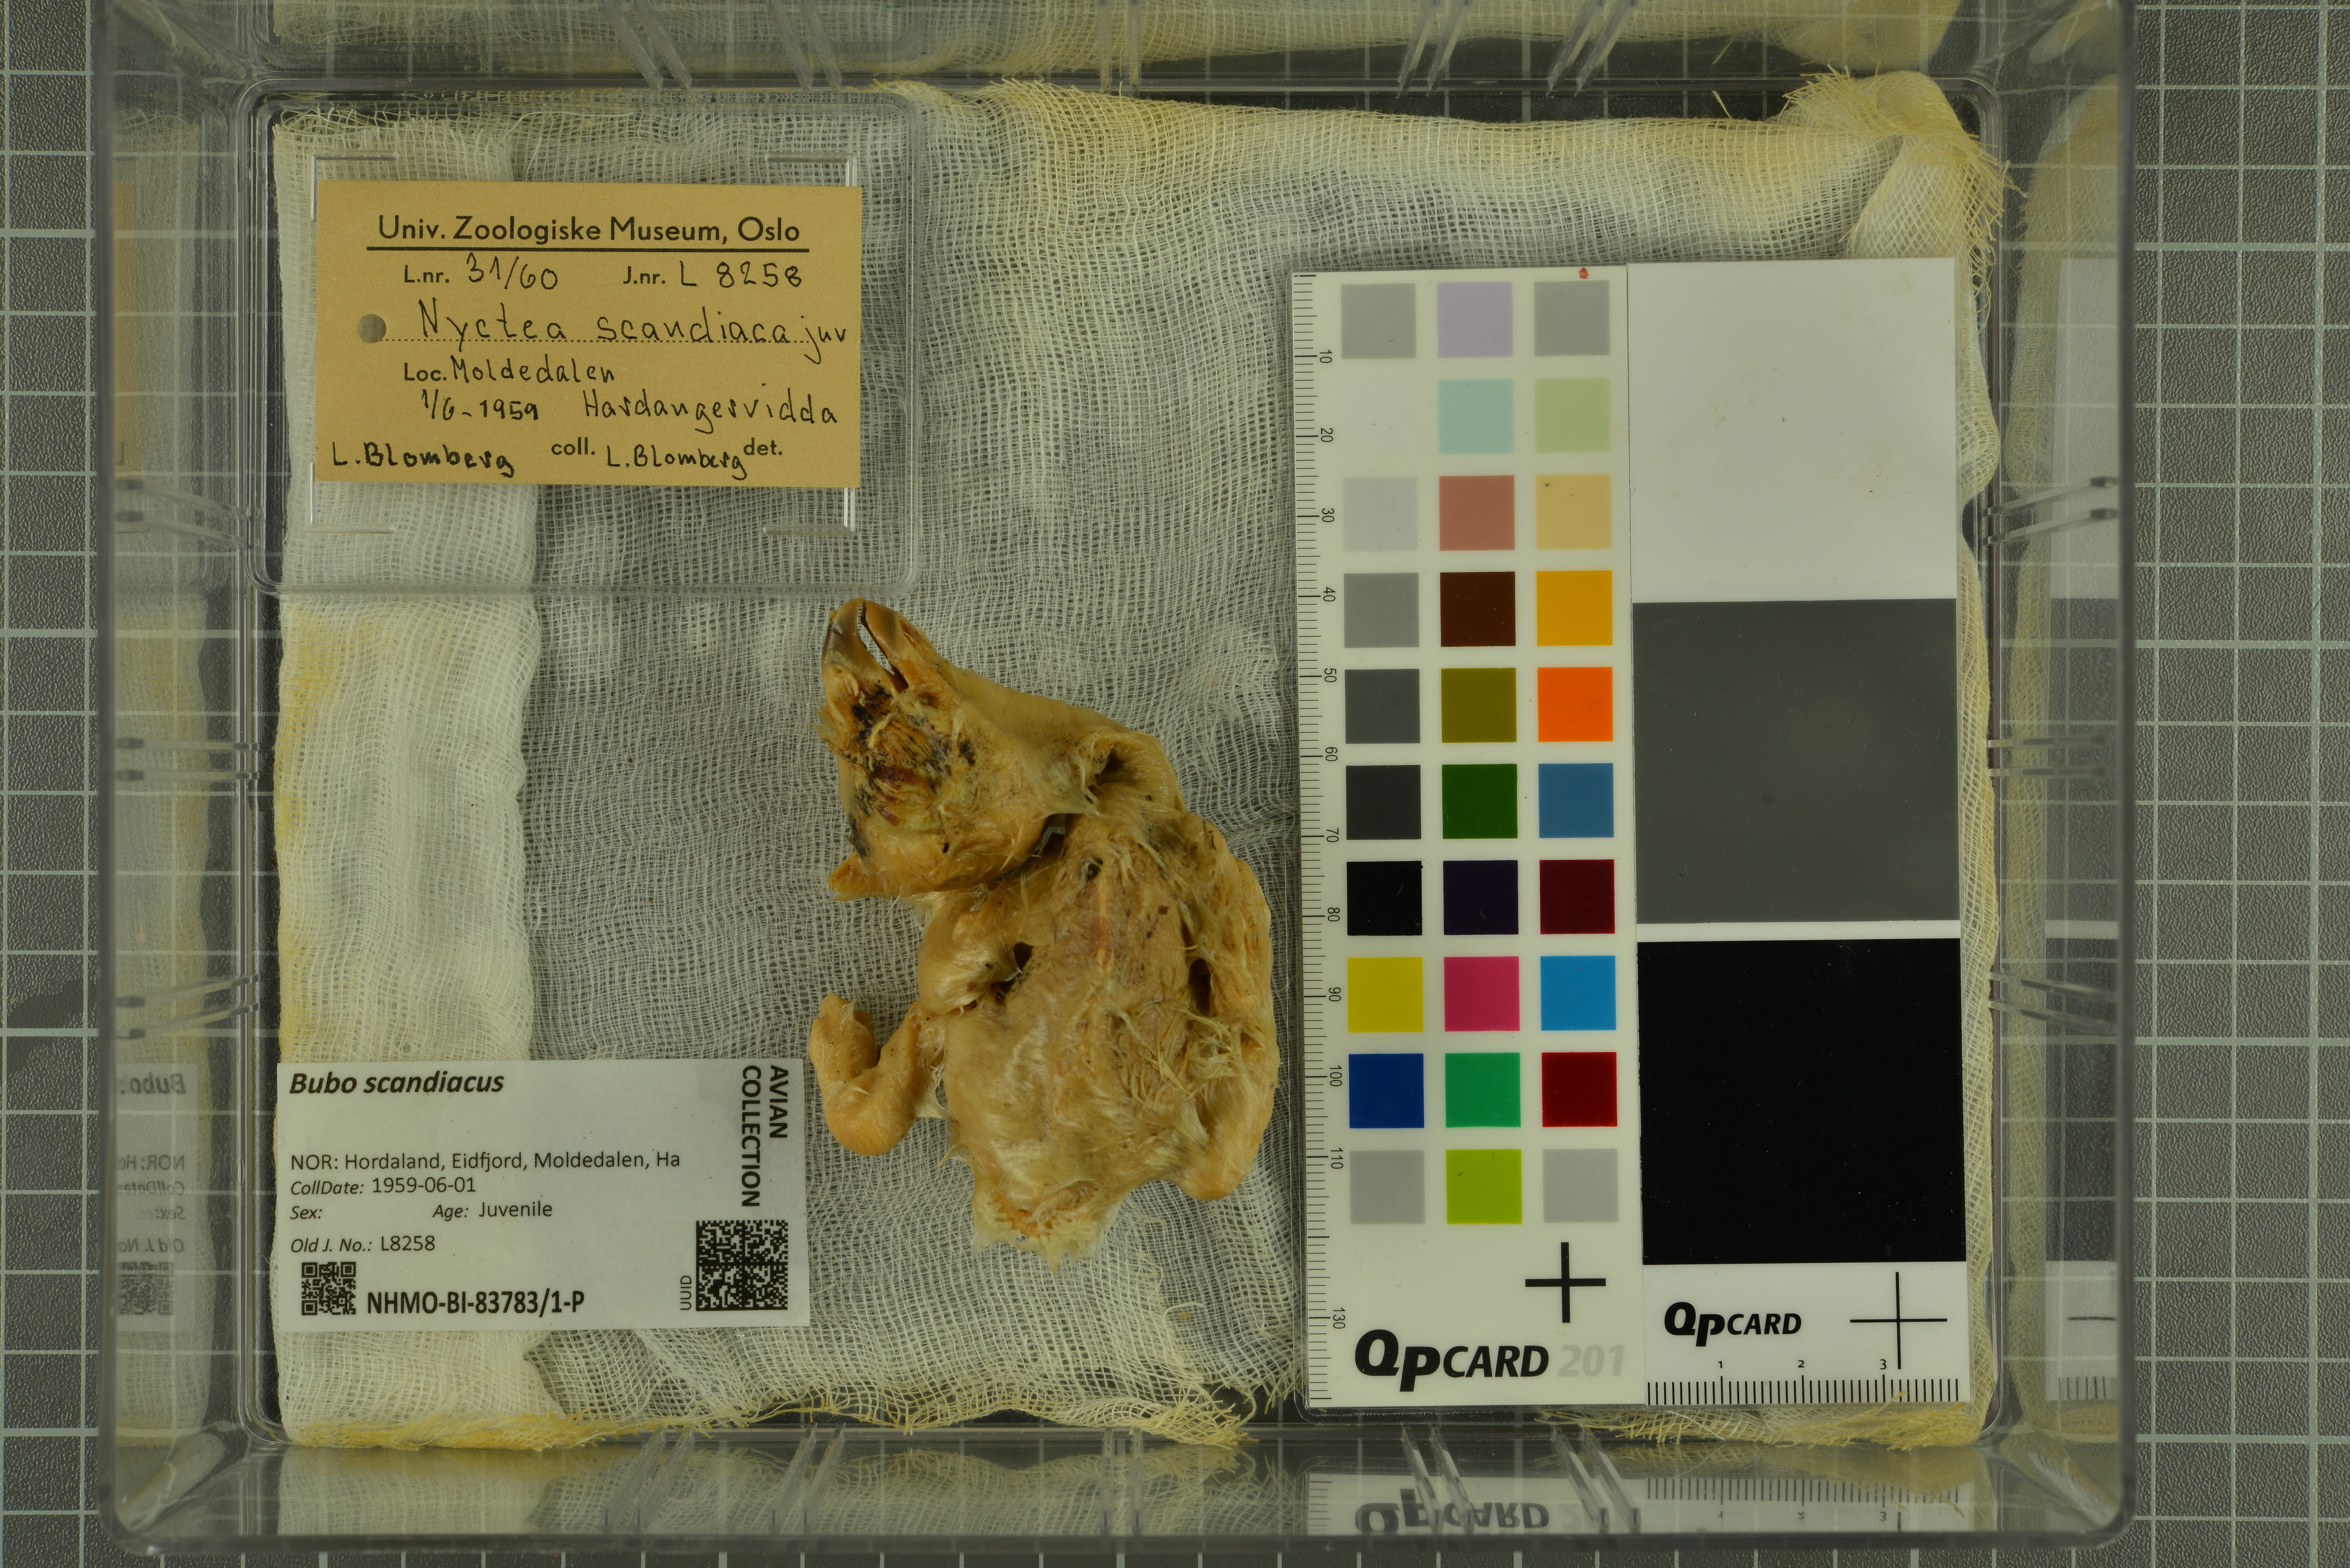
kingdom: Animalia
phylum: Chordata
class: Aves
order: Strigiformes
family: Strigidae
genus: Bubo
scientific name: Bubo scandiacus
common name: Snowy owl
